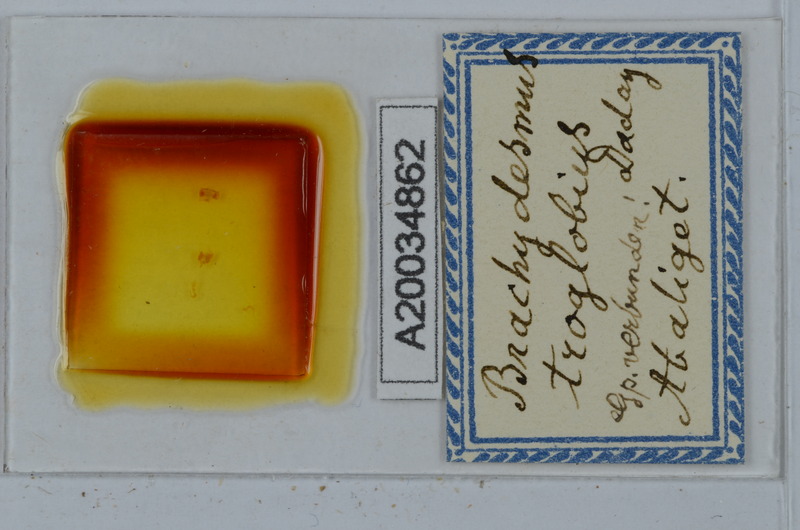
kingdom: Animalia
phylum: Arthropoda
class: Diplopoda
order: Polydesmida
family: Polydesmidae
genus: Brachydesmus
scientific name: Brachydesmus troglobius
